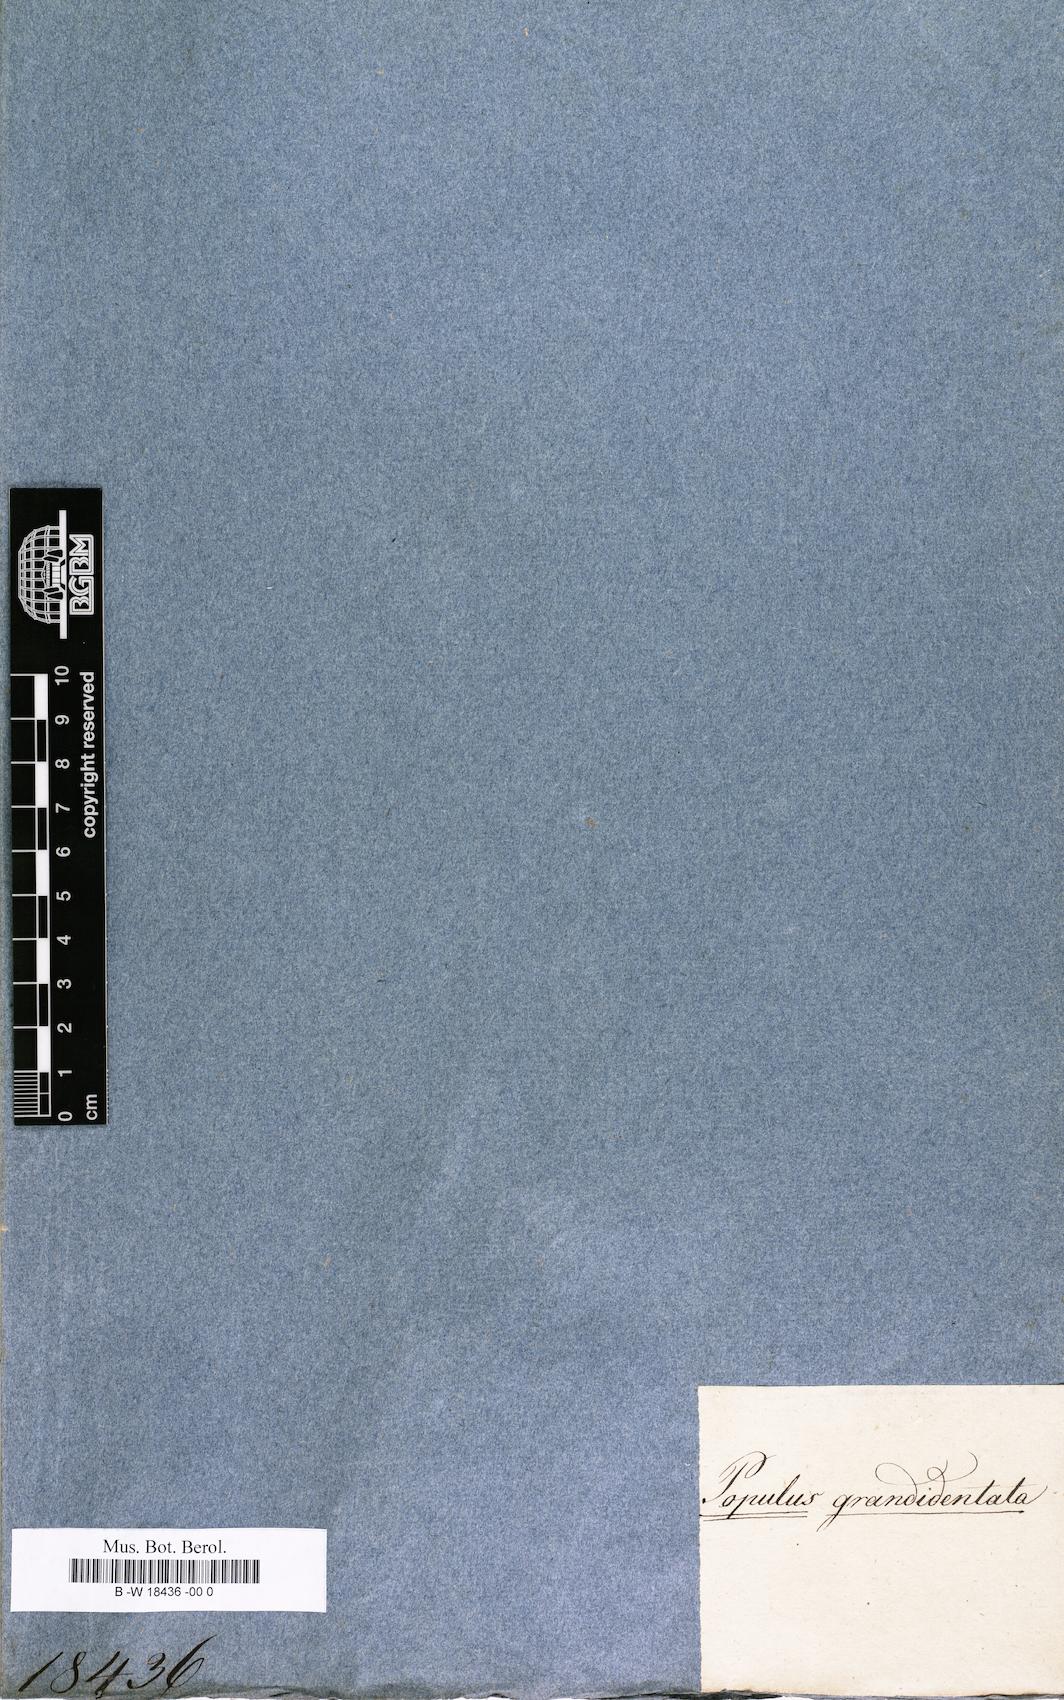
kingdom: Plantae
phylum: Tracheophyta
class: Magnoliopsida
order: Malpighiales
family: Salicaceae
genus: Populus
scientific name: Populus grandidentata
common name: Bigtooth aspen
